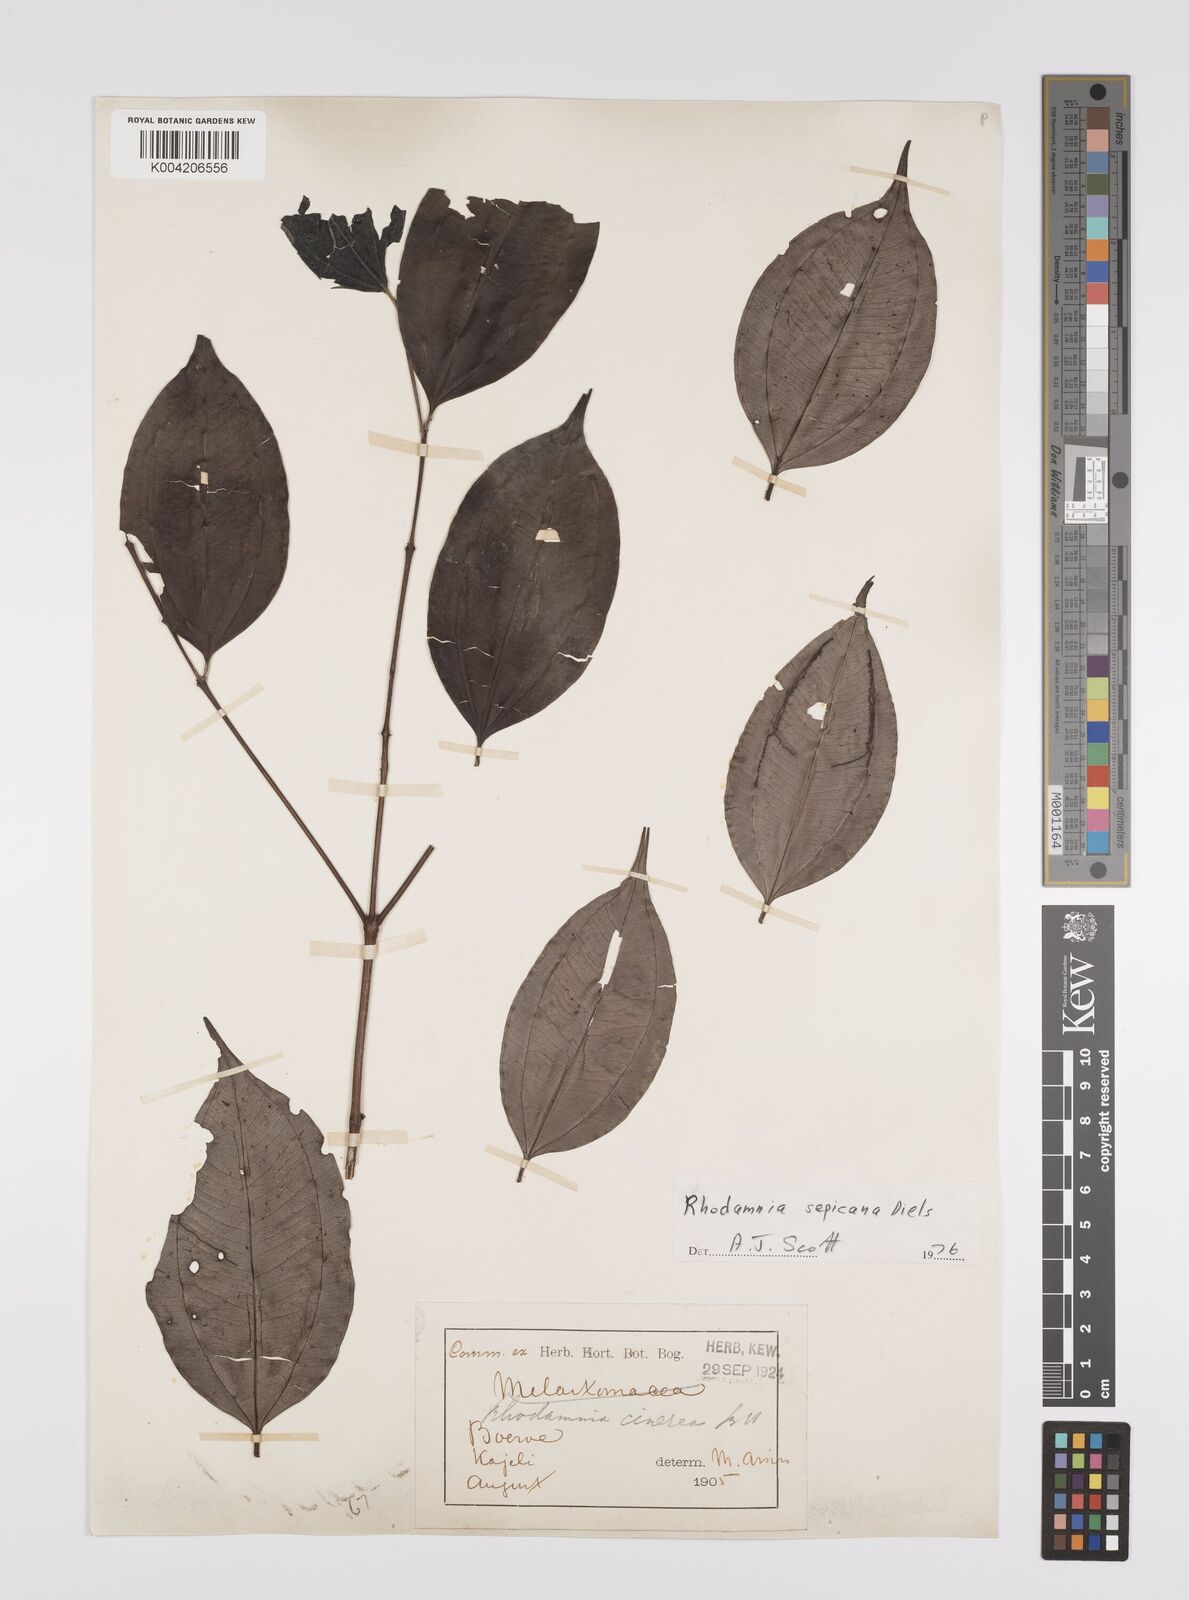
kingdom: Plantae
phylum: Tracheophyta
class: Magnoliopsida
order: Myrtales
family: Myrtaceae
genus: Rhodamnia
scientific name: Rhodamnia sepicana
